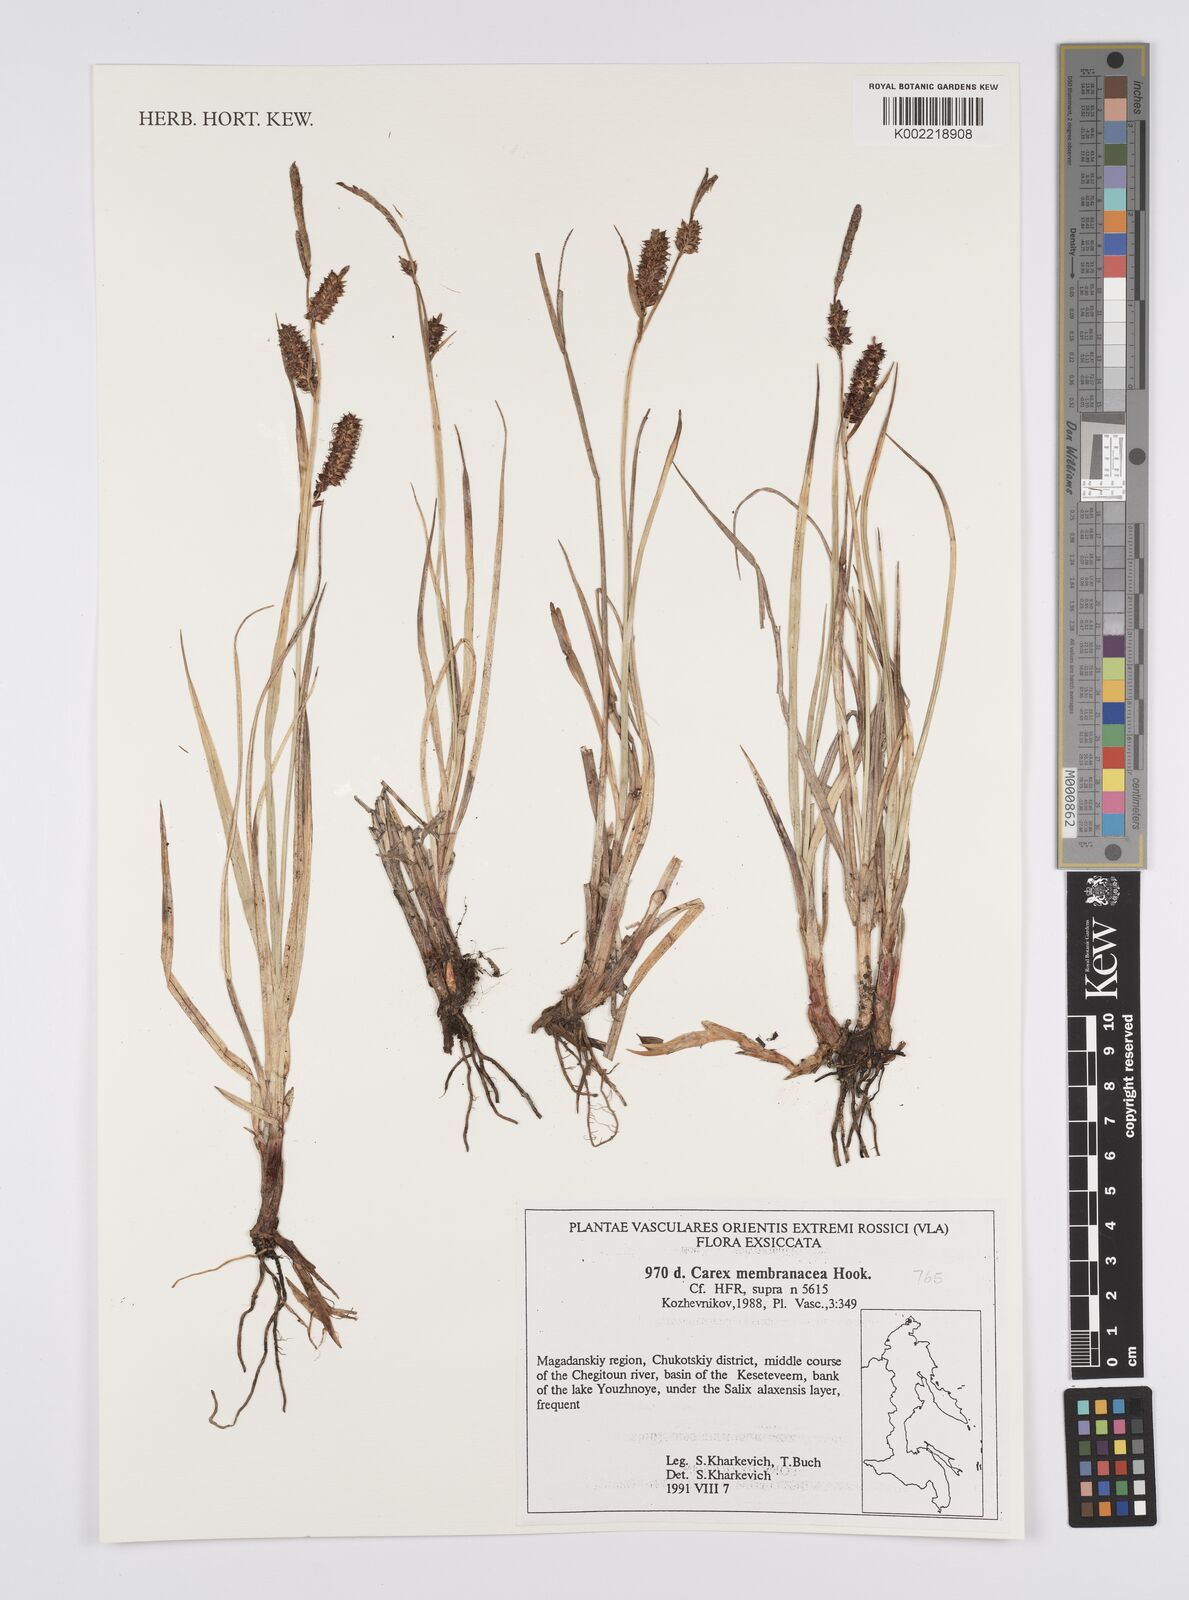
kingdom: Plantae
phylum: Tracheophyta
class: Liliopsida
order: Poales
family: Cyperaceae
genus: Carex
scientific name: Carex vesicaria
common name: Bladder-sedge
